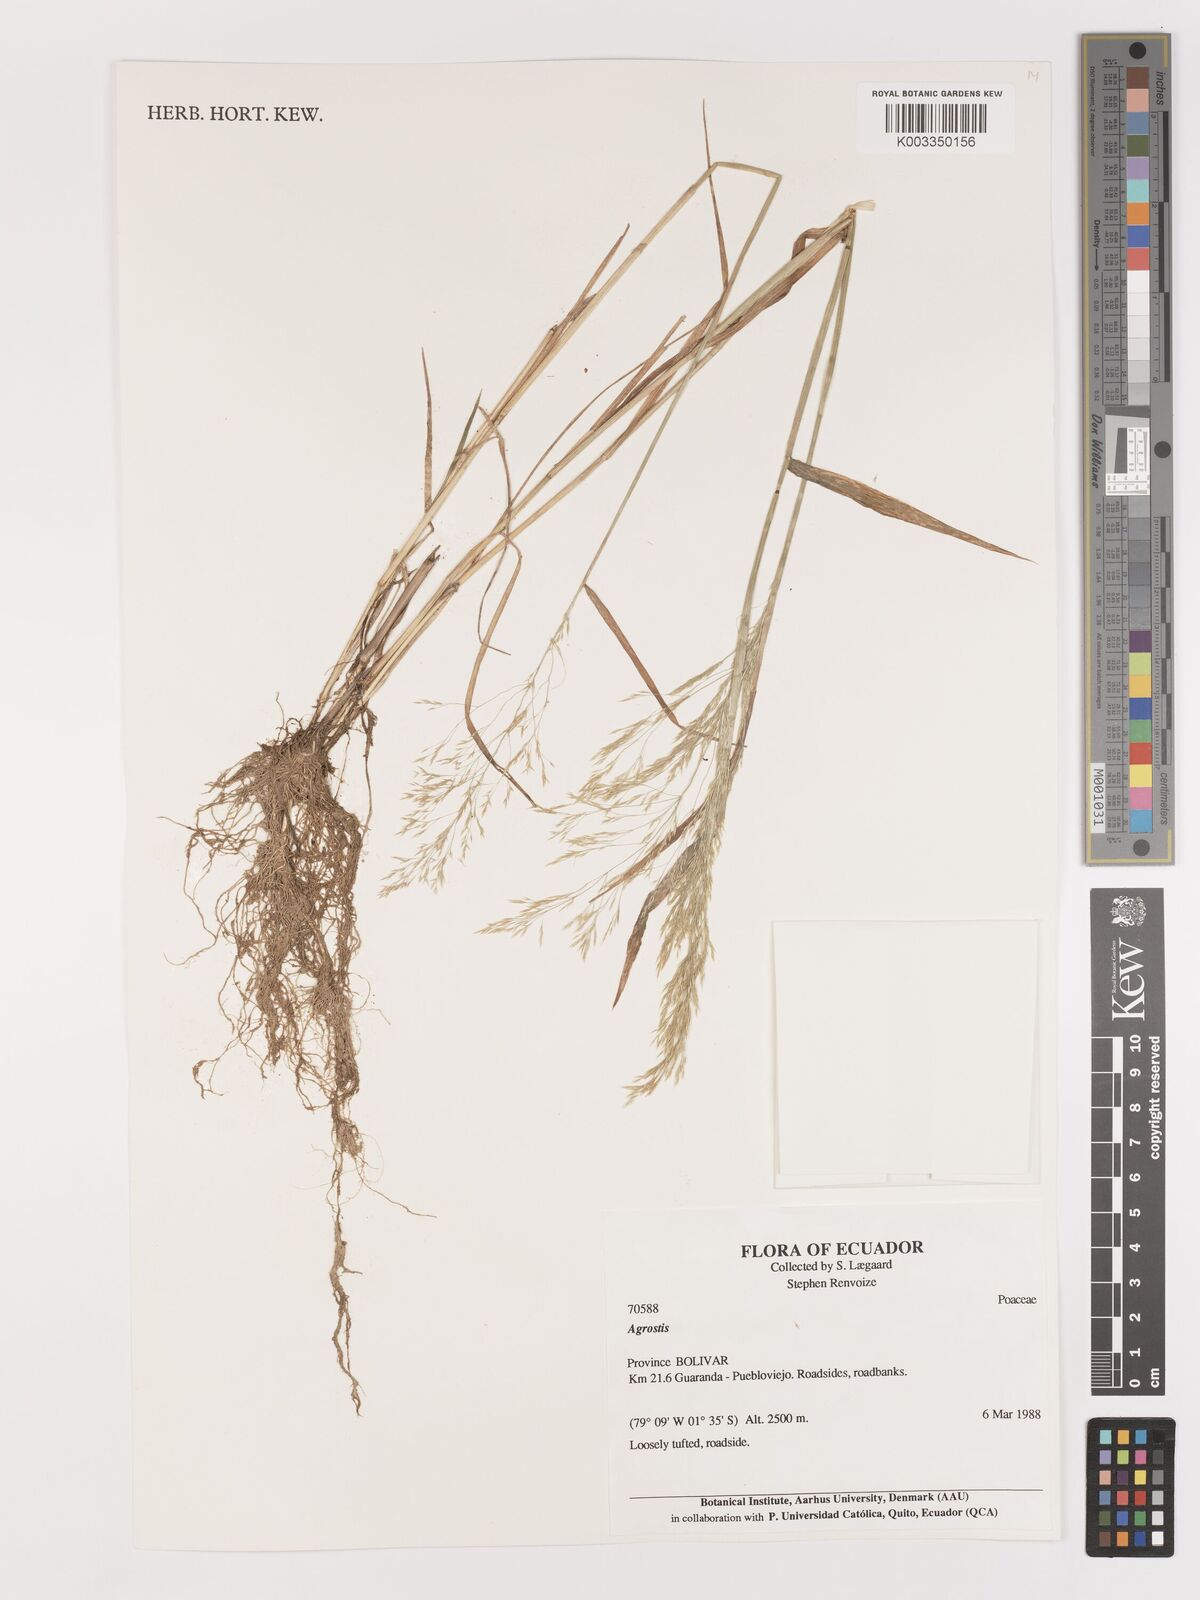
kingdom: Plantae
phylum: Tracheophyta
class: Liliopsida
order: Poales
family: Poaceae
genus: Agrostis
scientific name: Agrostis
